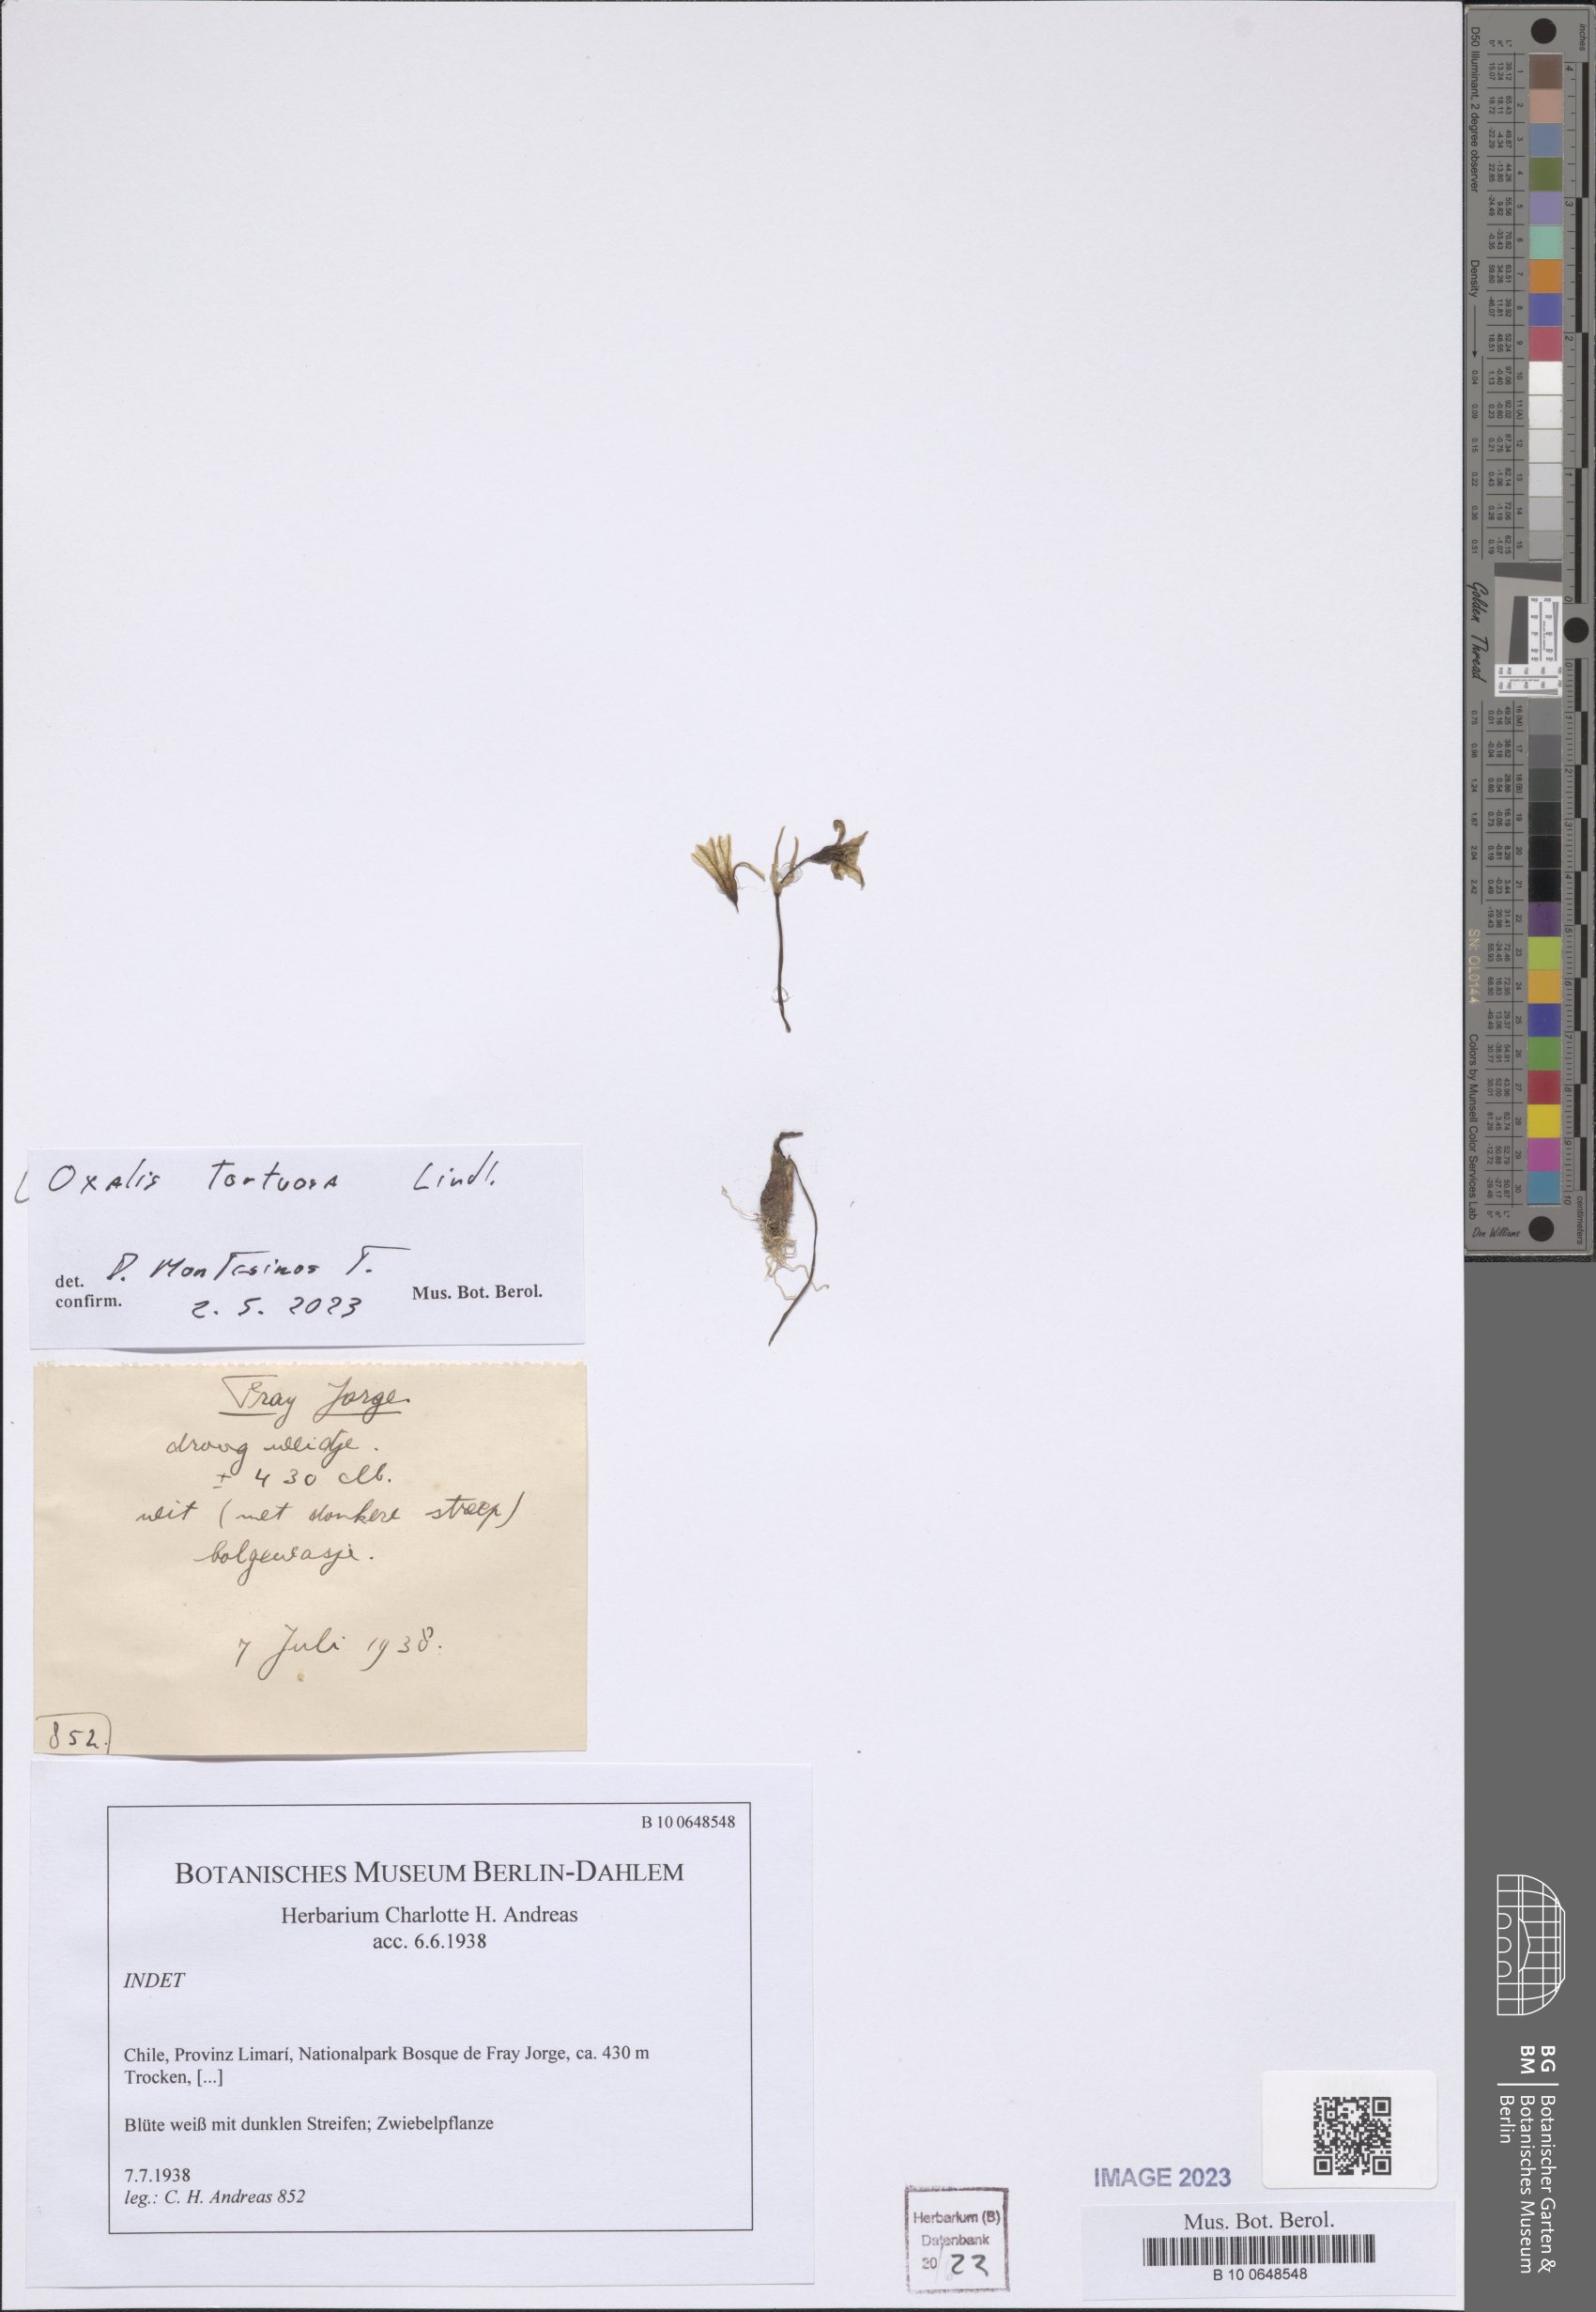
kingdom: Plantae
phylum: Tracheophyta
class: Magnoliopsida
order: Oxalidales
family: Oxalidaceae
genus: Oxalis
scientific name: Oxalis tortuosa
